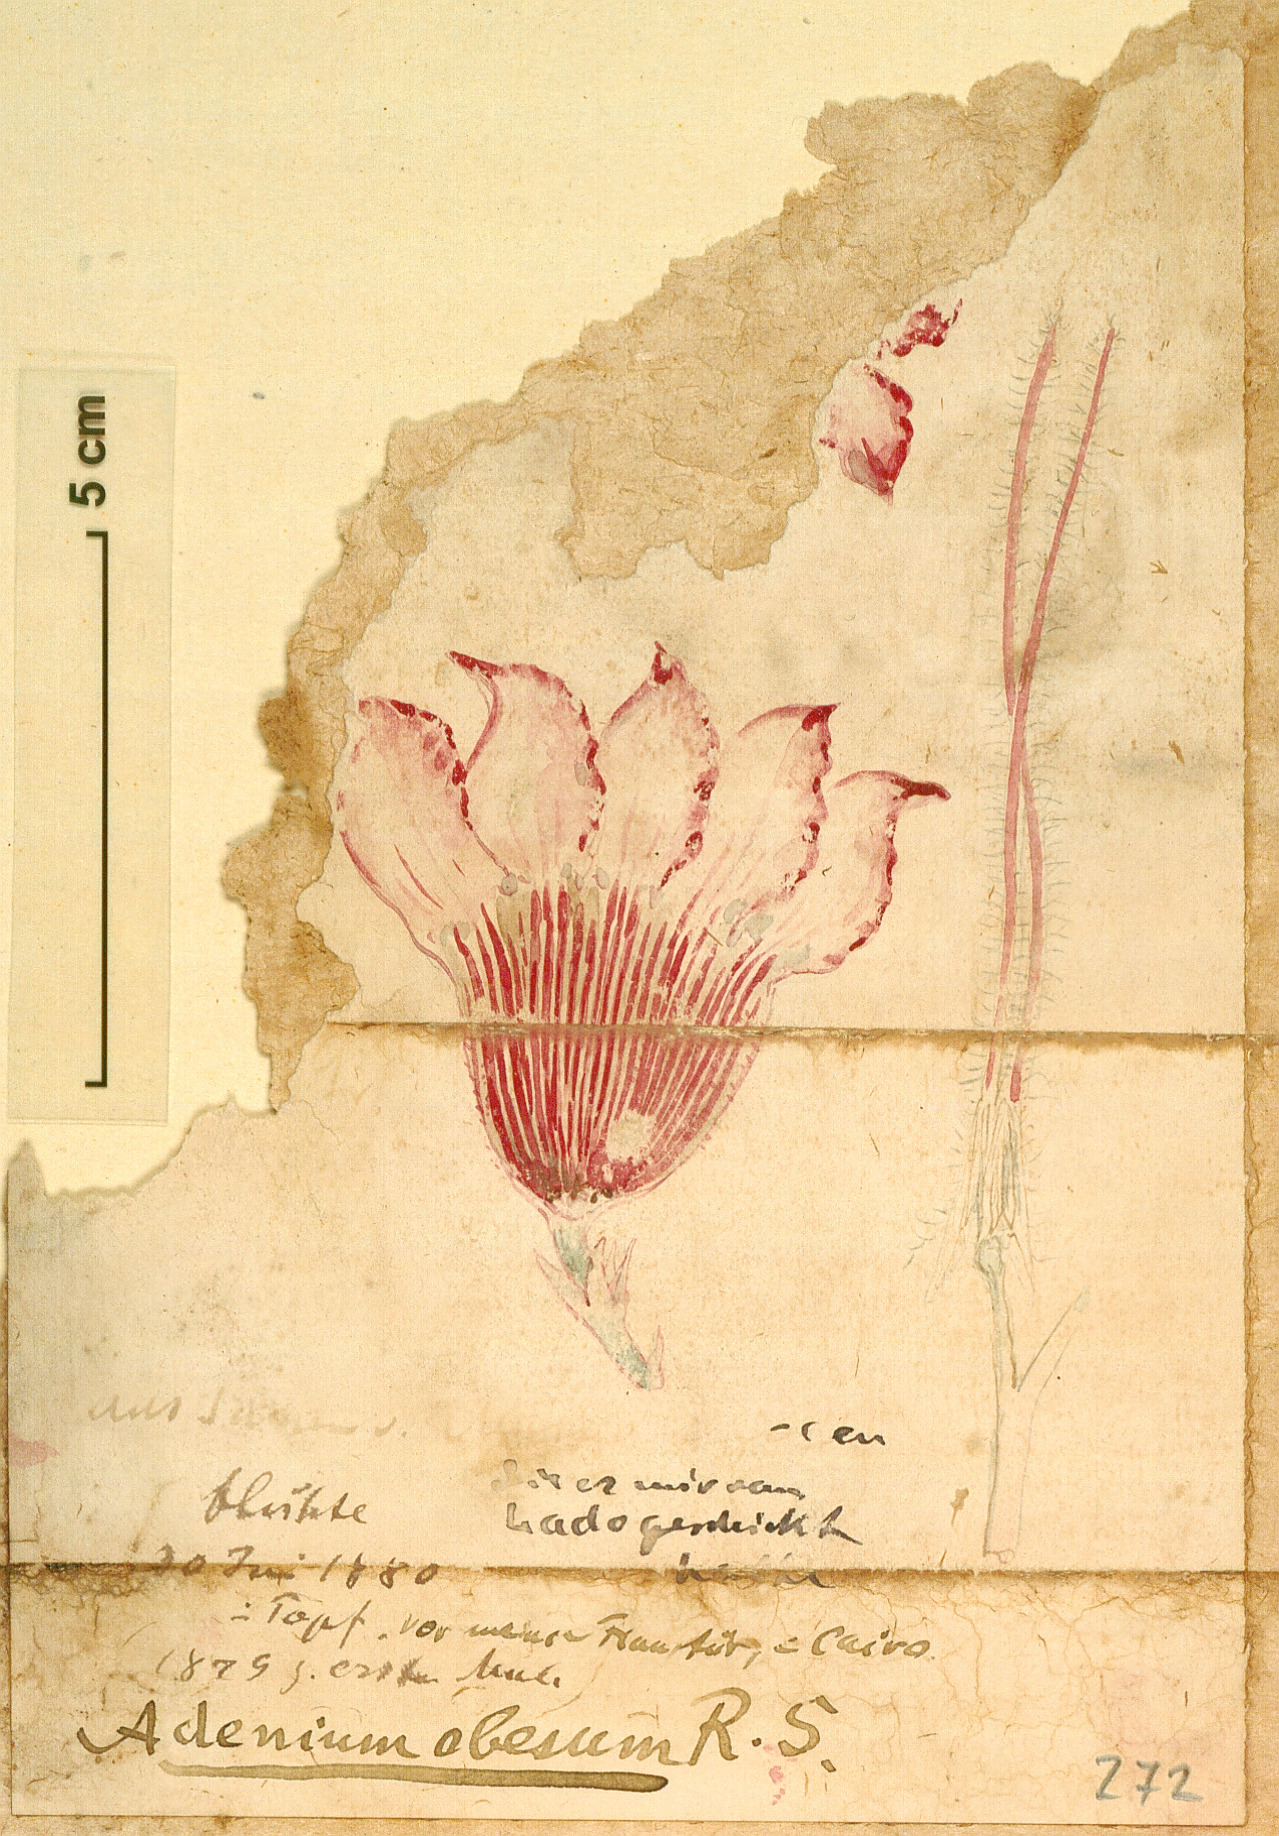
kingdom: Plantae
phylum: Tracheophyta
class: Magnoliopsida
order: Gentianales
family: Apocynaceae
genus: Adenium
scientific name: Adenium obesum
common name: Desert-rose
